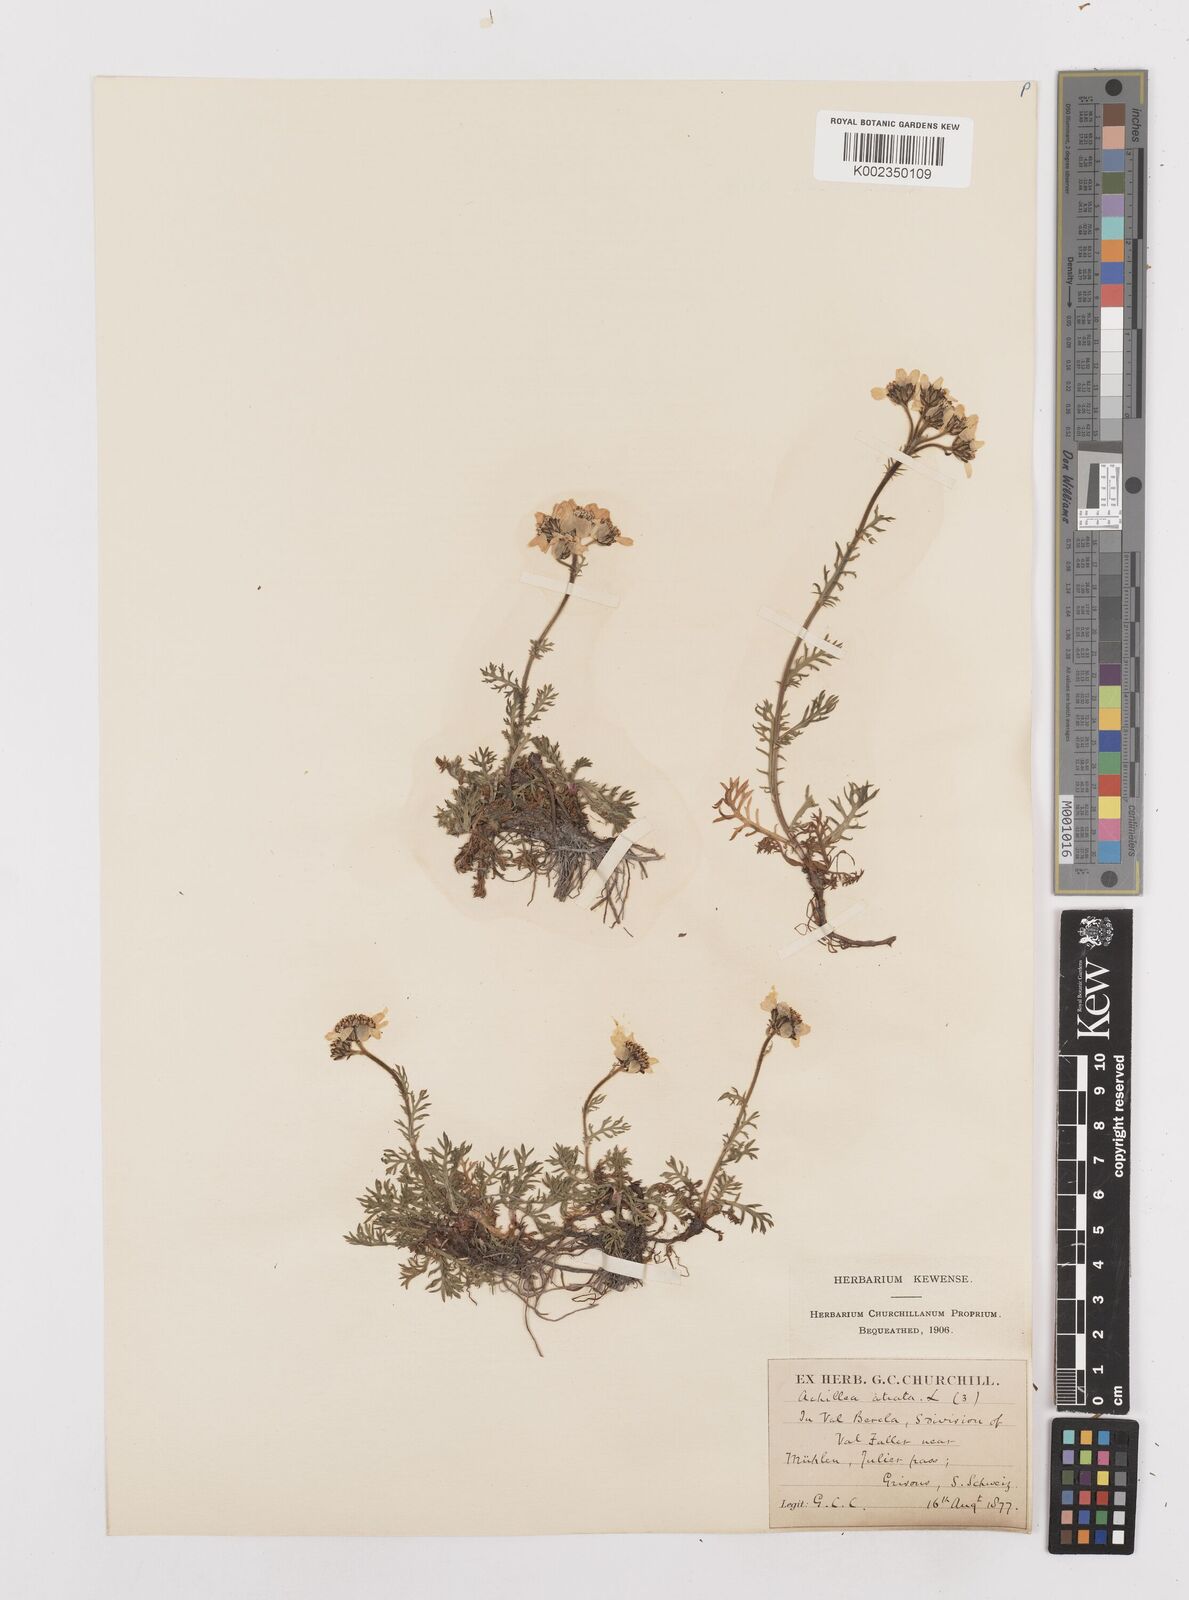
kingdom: Plantae
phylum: Tracheophyta
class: Magnoliopsida
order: Asterales
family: Asteraceae
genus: Achillea
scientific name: Achillea atrata
